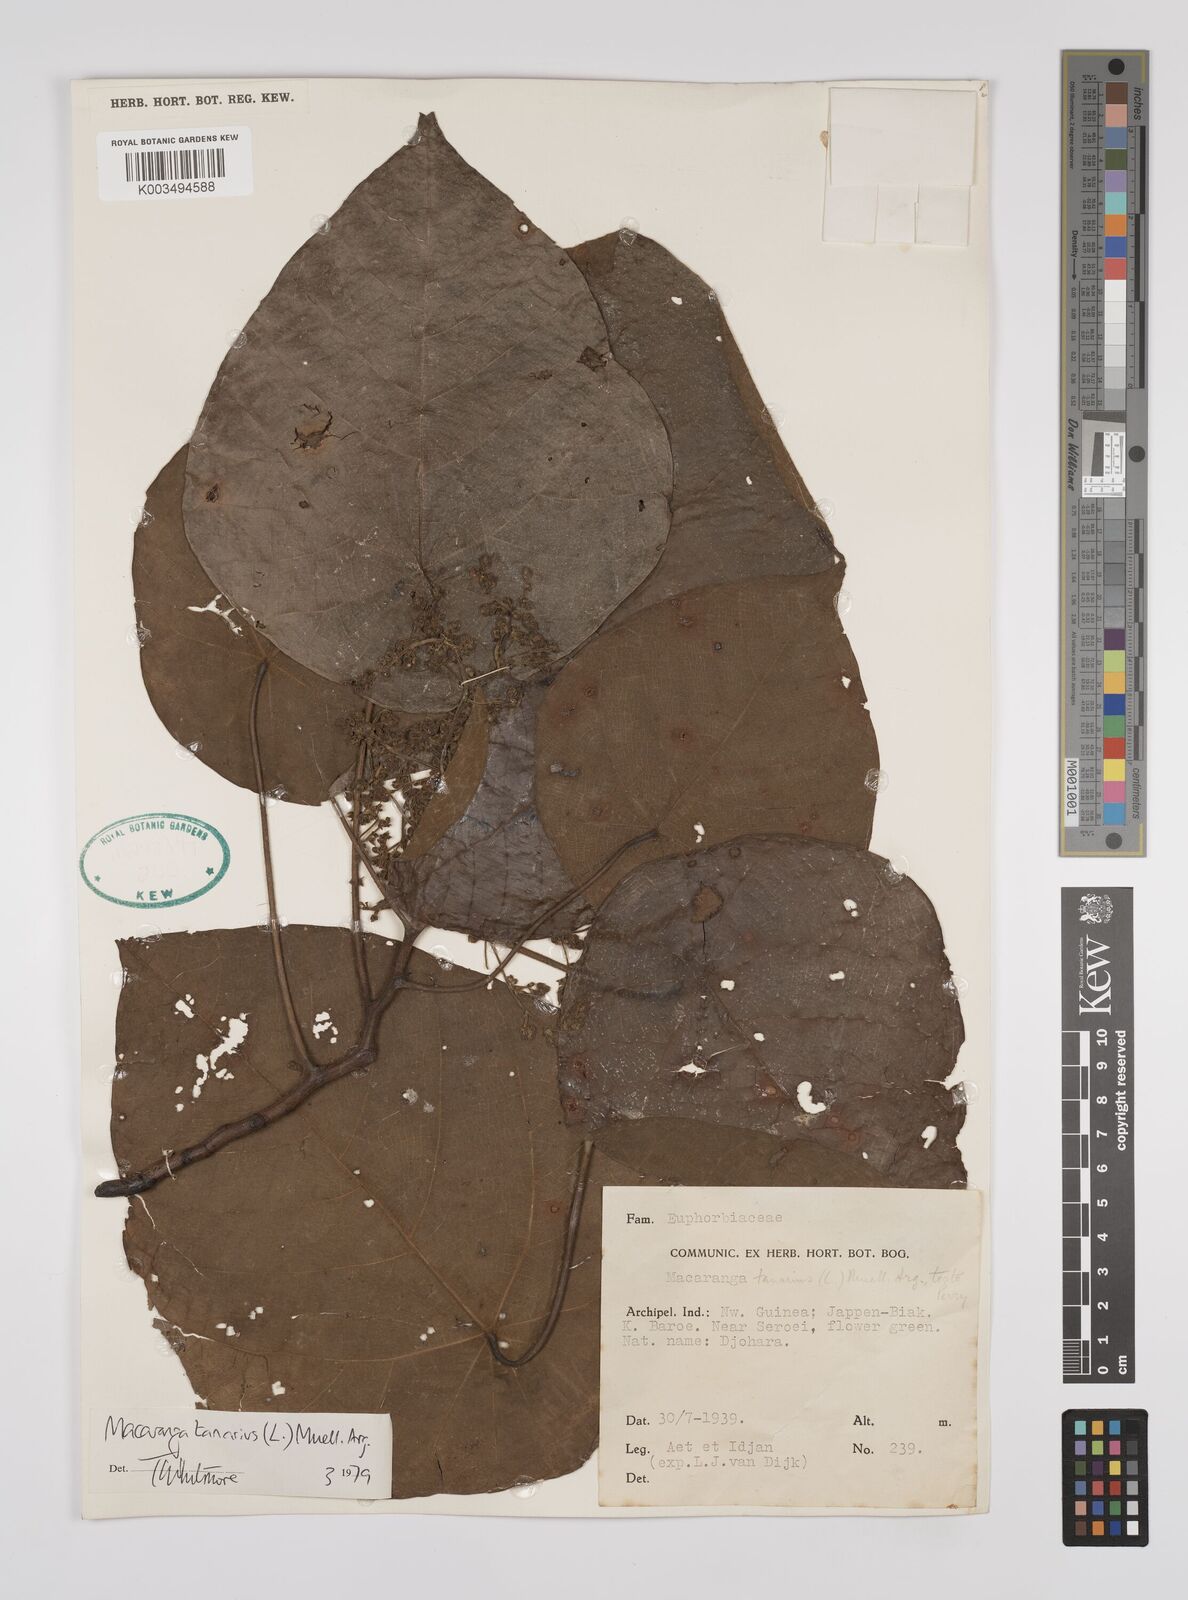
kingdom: Plantae
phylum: Tracheophyta
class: Magnoliopsida
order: Malpighiales
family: Euphorbiaceae
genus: Macaranga
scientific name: Macaranga tanarius
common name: Parasol leaf tree
